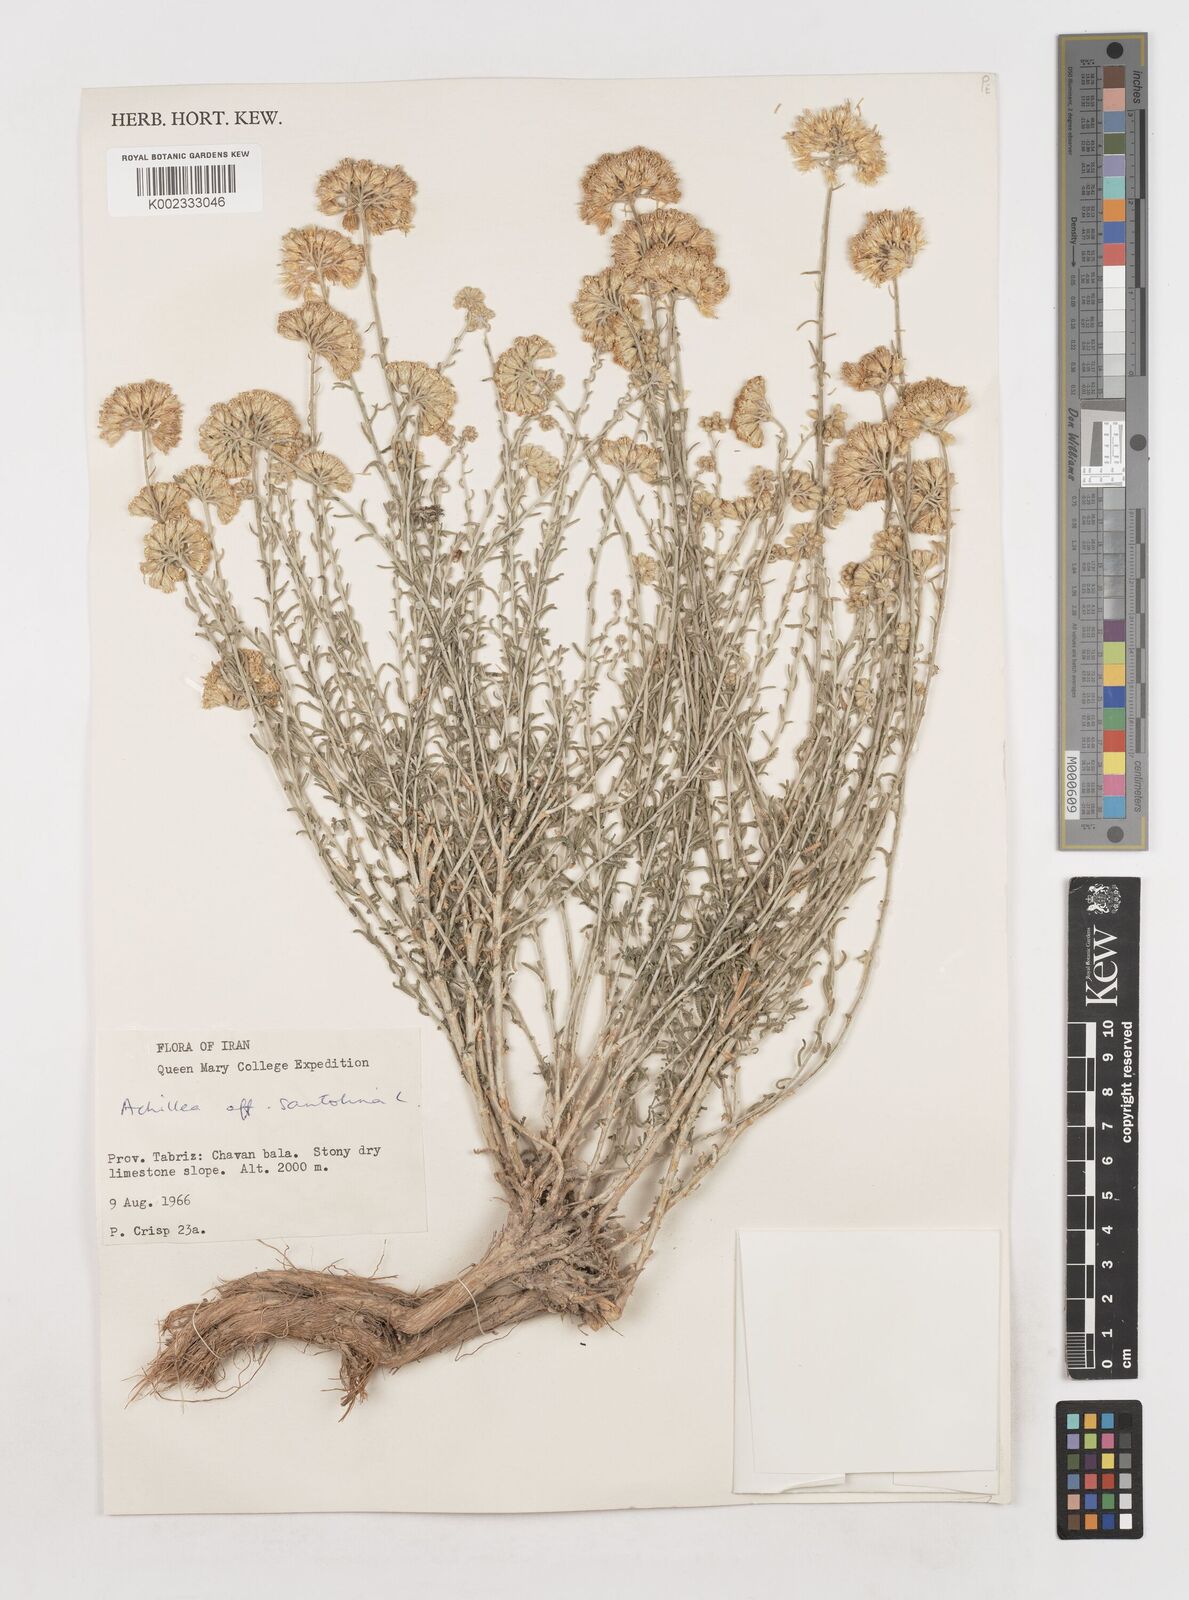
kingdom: Plantae
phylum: Tracheophyta
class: Magnoliopsida
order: Asterales
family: Asteraceae
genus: Achillea
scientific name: Achillea
